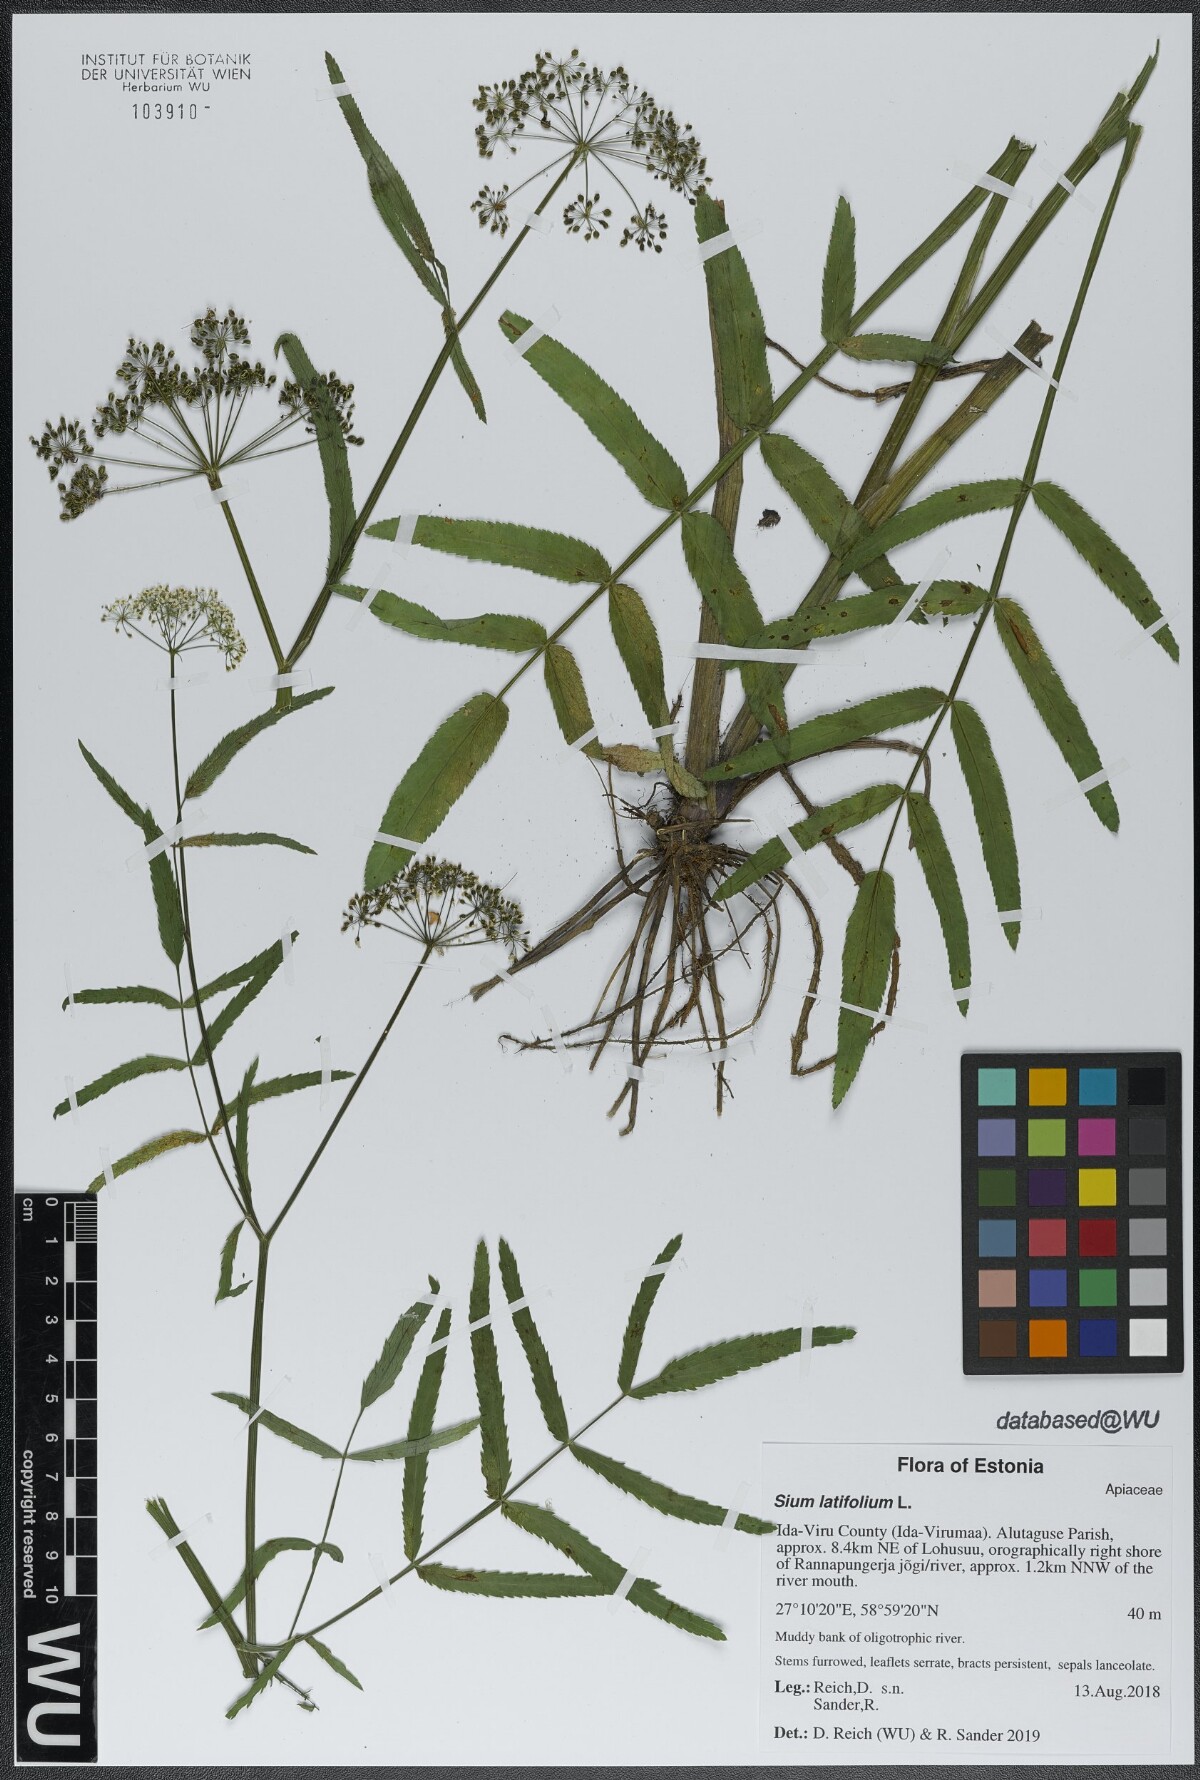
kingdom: Plantae
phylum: Tracheophyta
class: Magnoliopsida
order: Apiales
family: Apiaceae
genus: Sium
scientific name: Sium latifolium
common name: Greater water-parsnip
